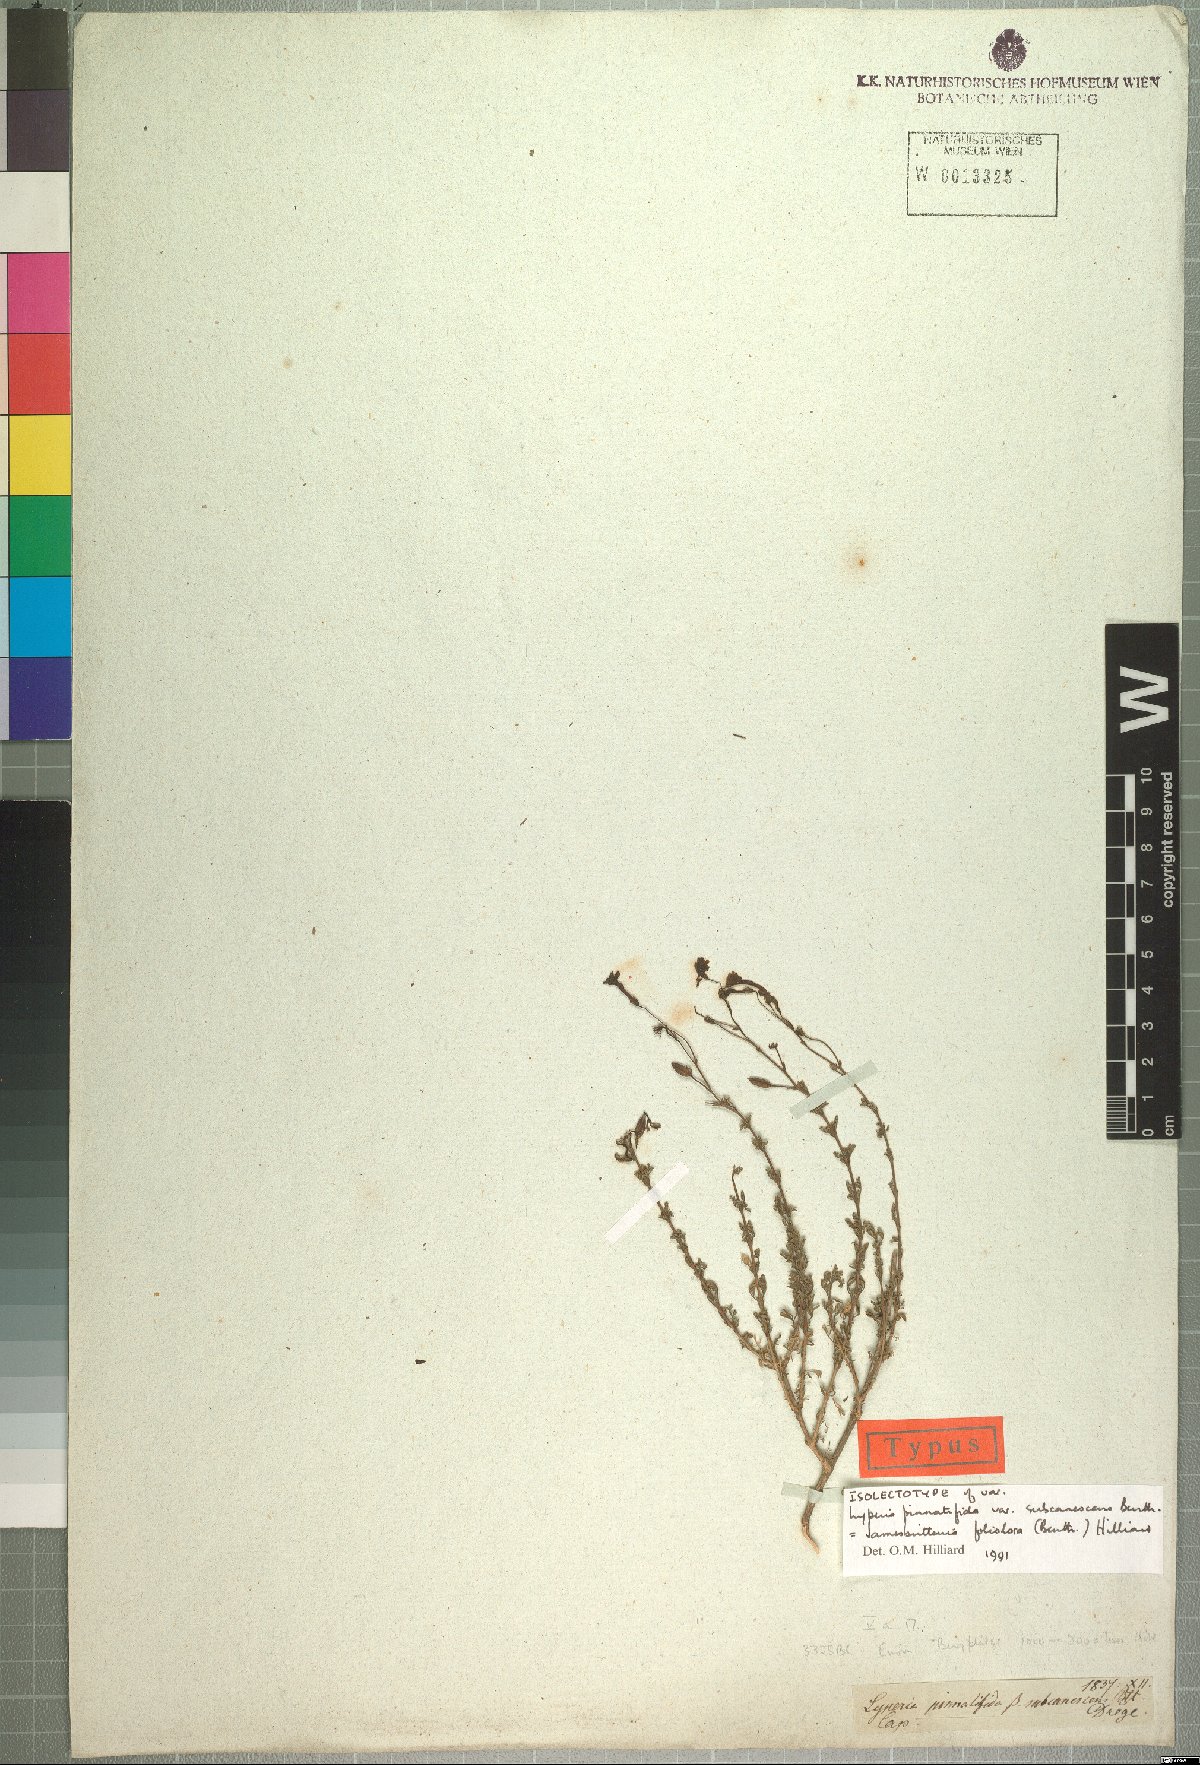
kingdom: Plantae
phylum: Tracheophyta
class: Magnoliopsida
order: Lamiales
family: Scrophulariaceae
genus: Jamesbrittenia
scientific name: Jamesbrittenia foliolosa
